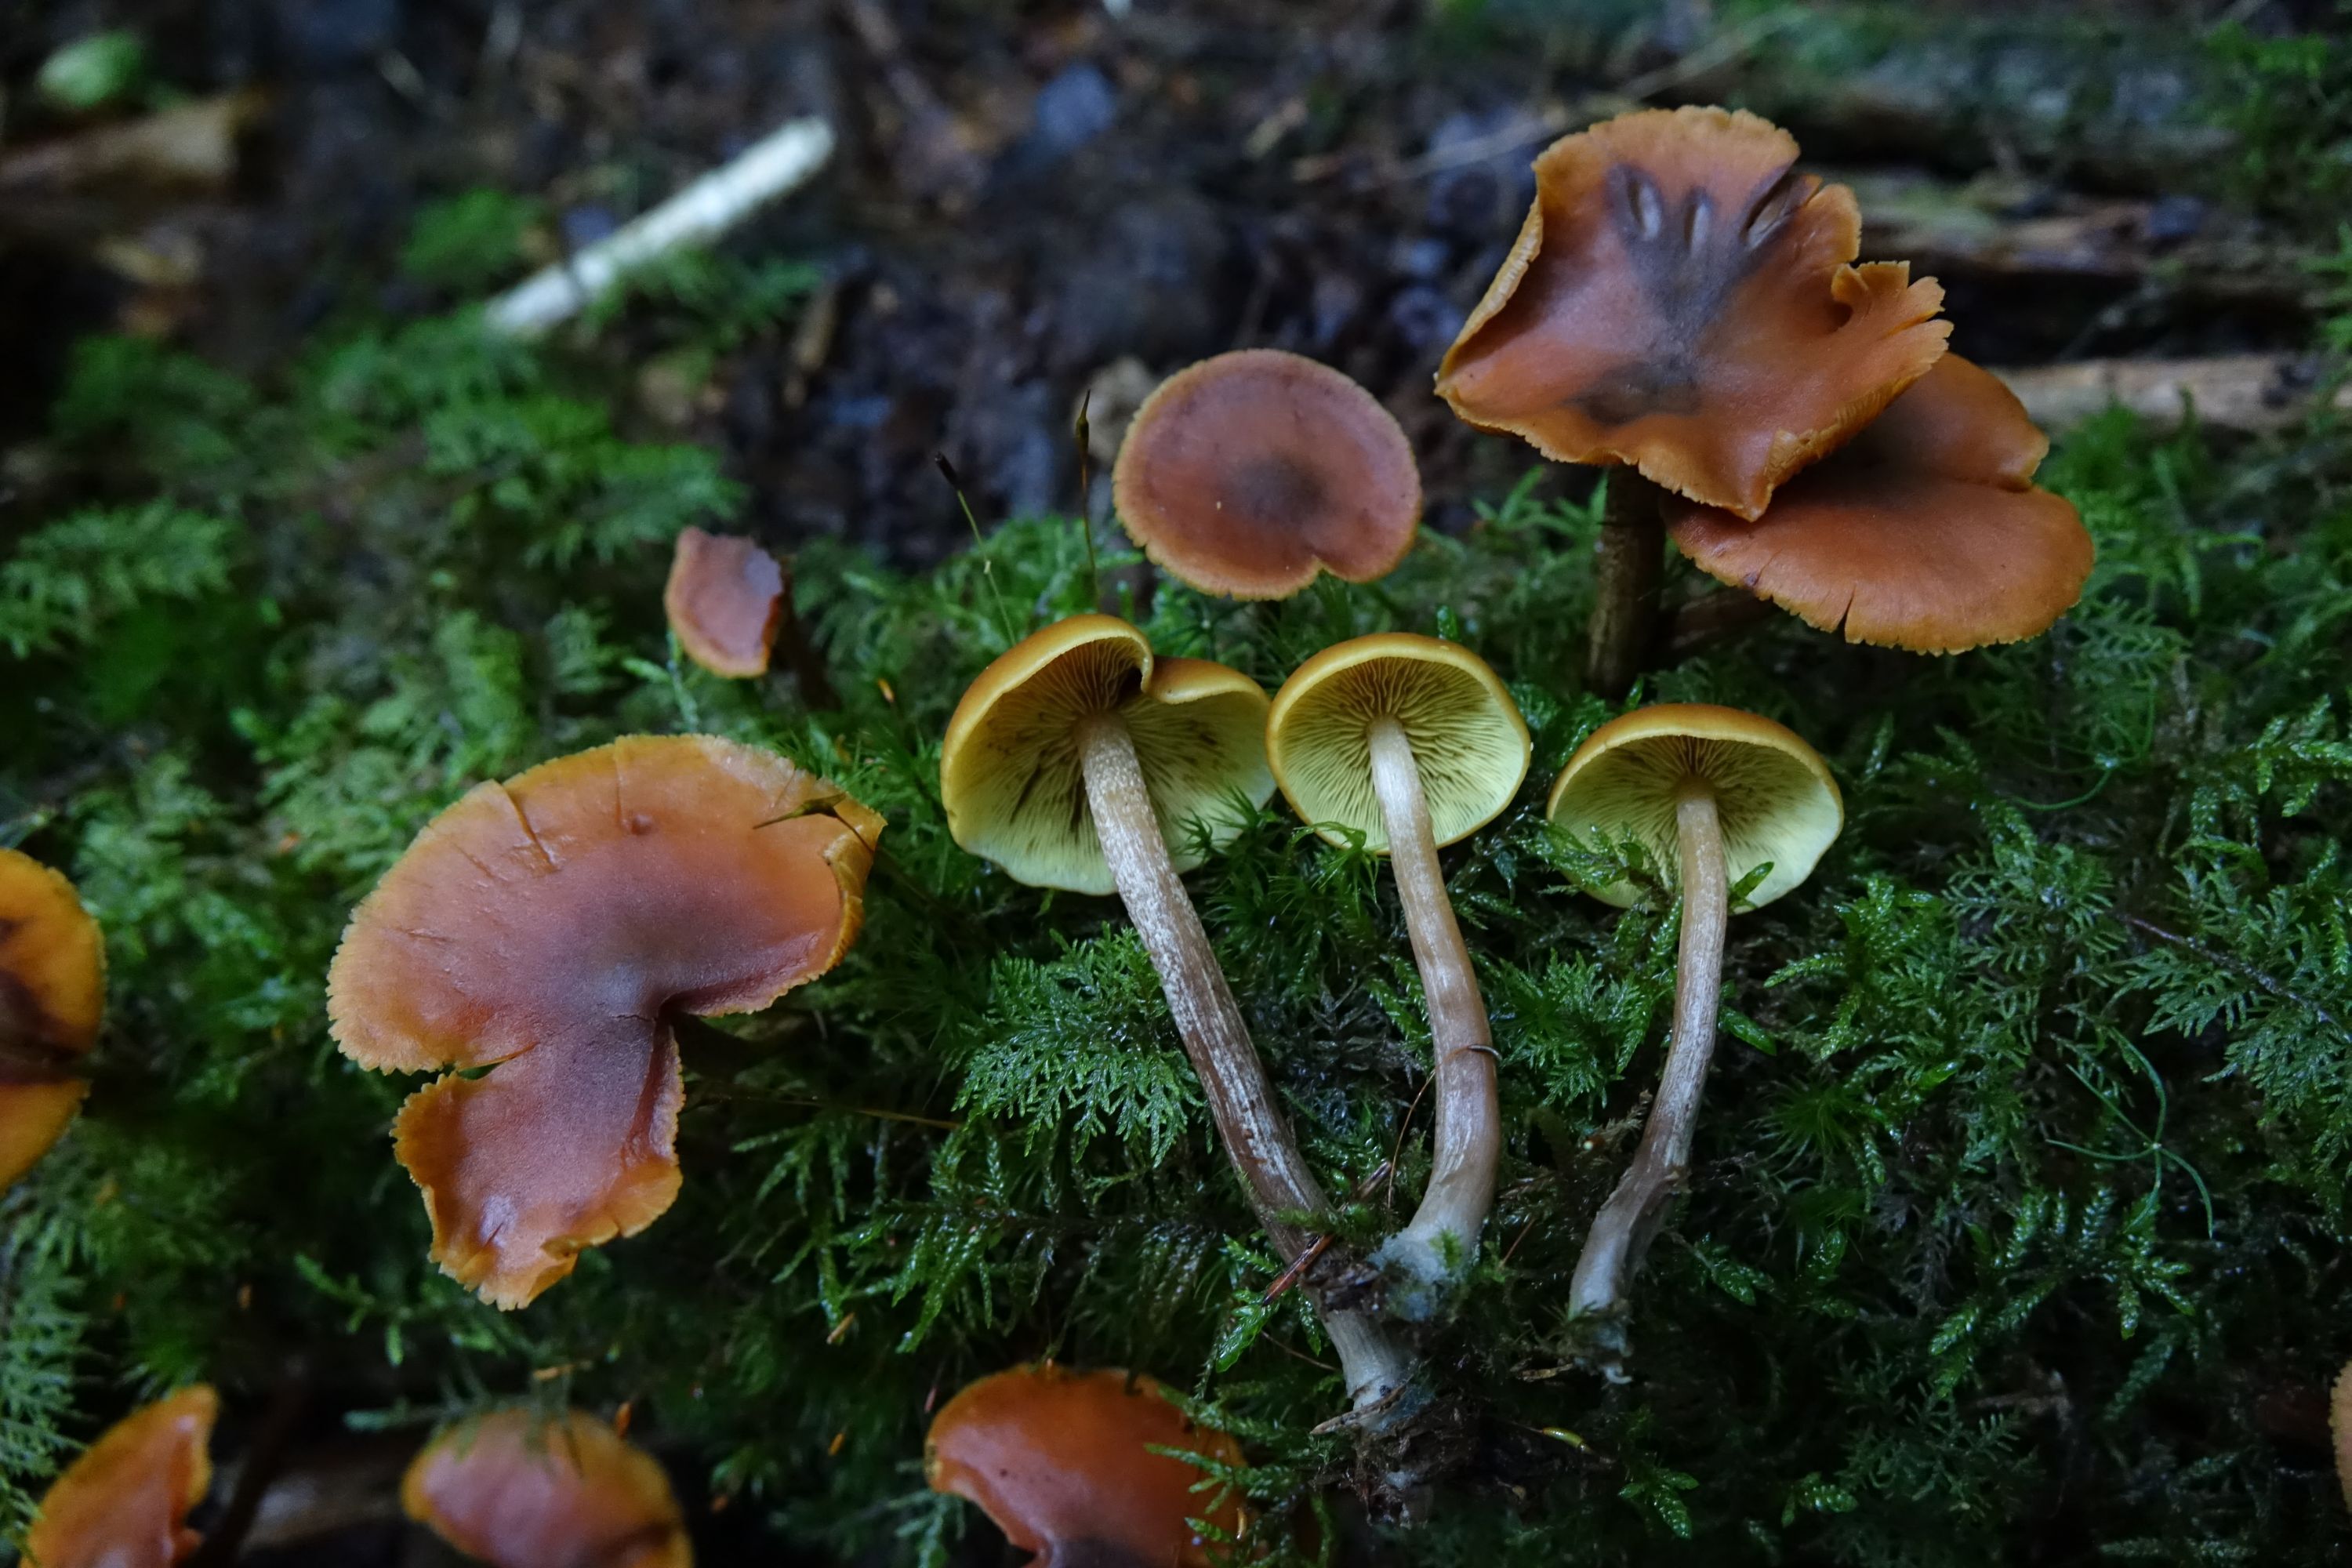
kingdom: Fungi
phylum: Basidiomycota
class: Agaricomycetes
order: Agaricales
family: Hymenogastraceae
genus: Gymnopilus
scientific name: Gymnopilus picreus
